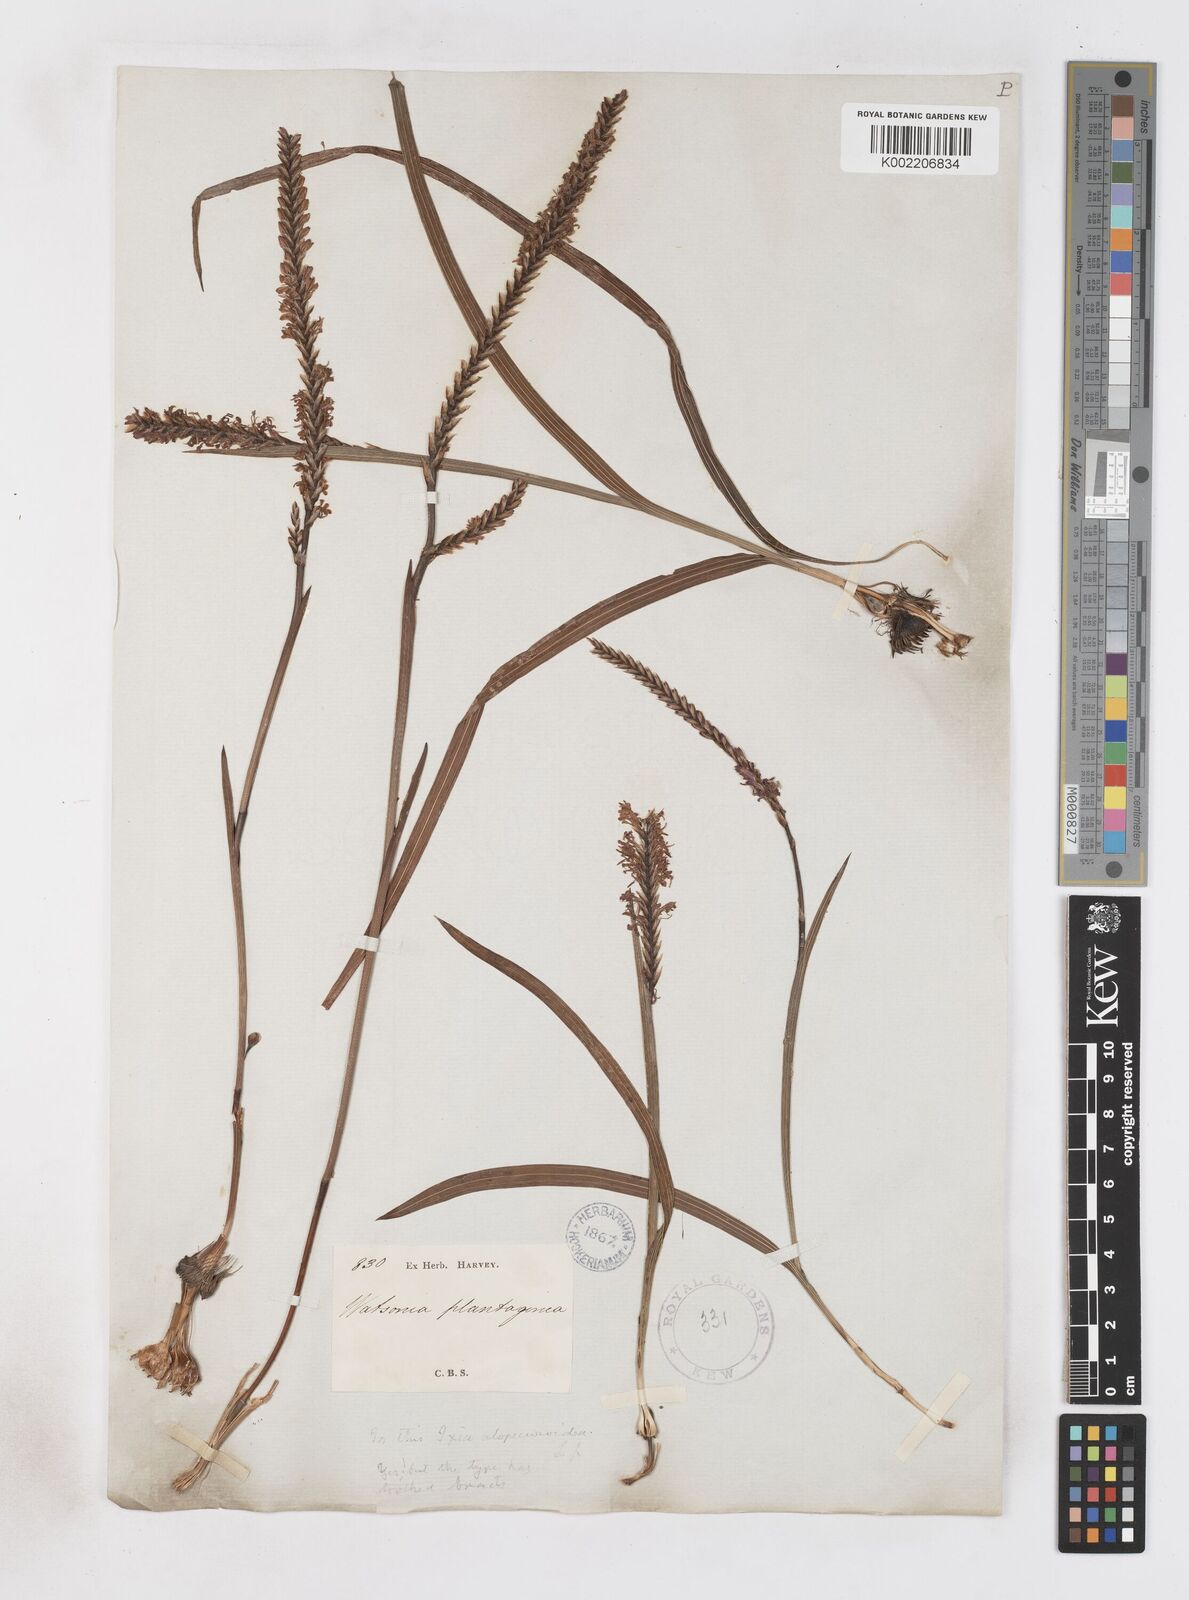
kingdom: Plantae
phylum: Tracheophyta
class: Liliopsida
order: Asparagales
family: Iridaceae
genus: Micranthus
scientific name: Micranthus alopecuroides
